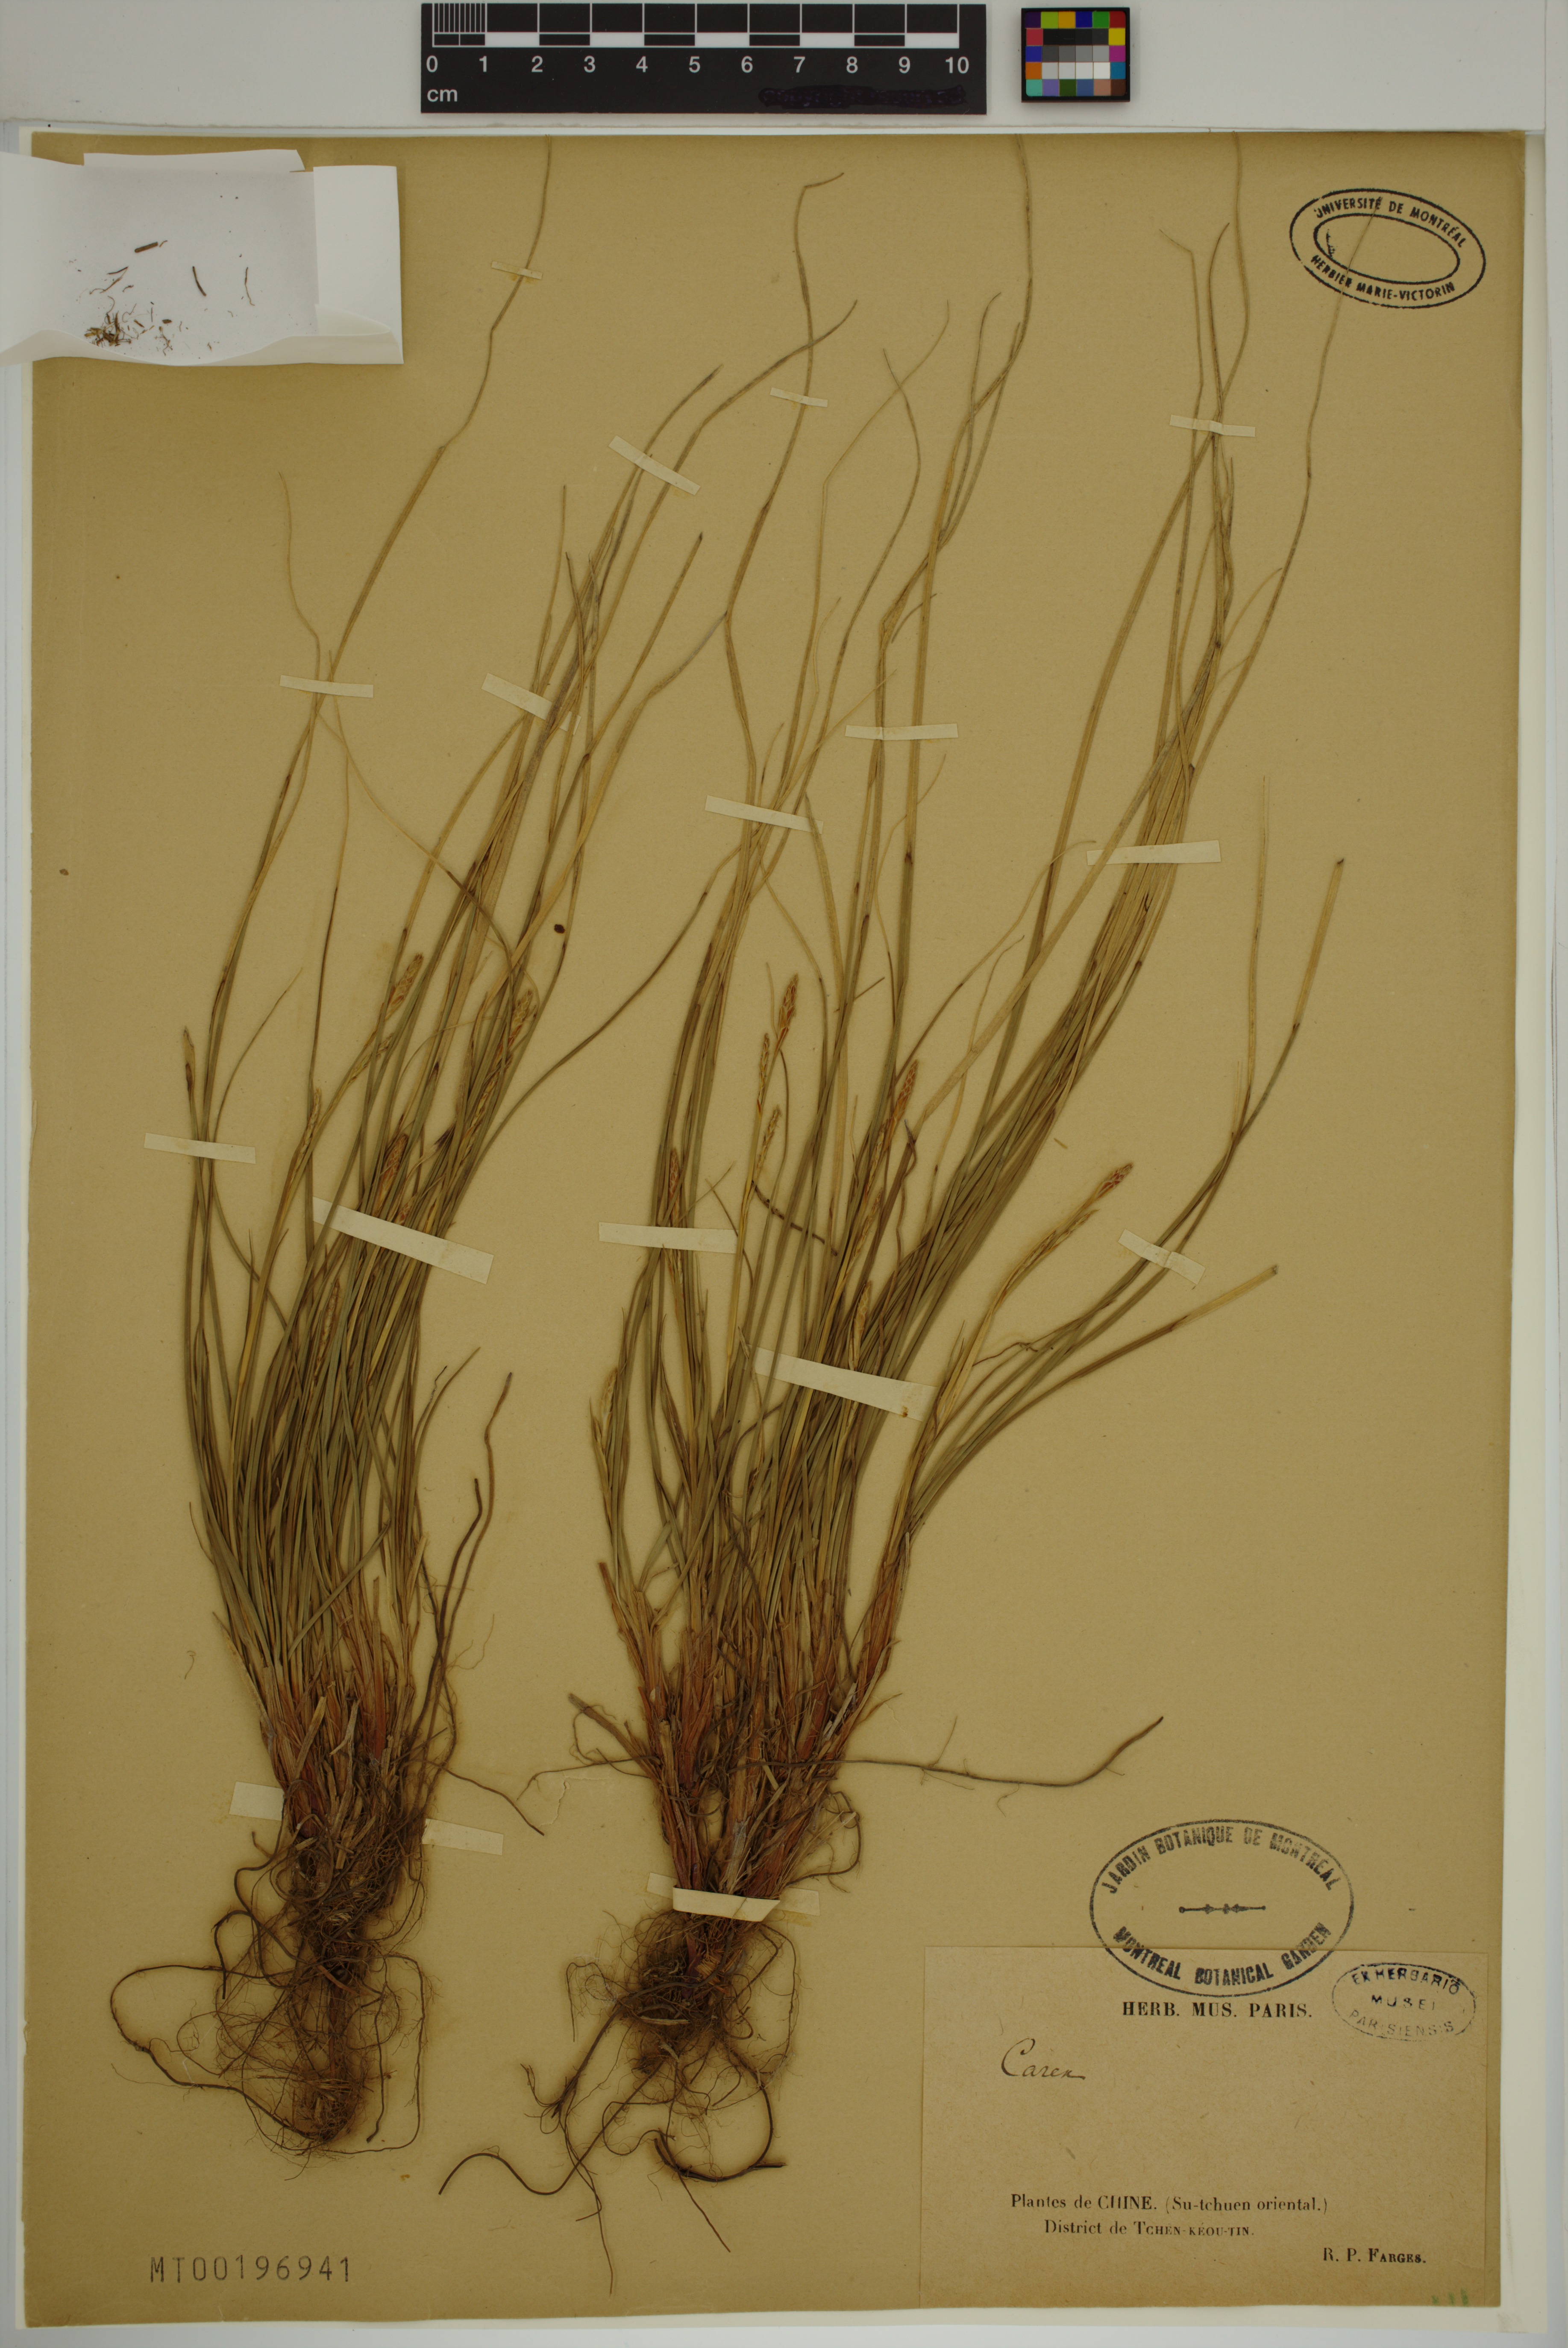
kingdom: Plantae
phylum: Tracheophyta
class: Liliopsida
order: Poales
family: Cyperaceae
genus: Carex
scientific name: Carex
